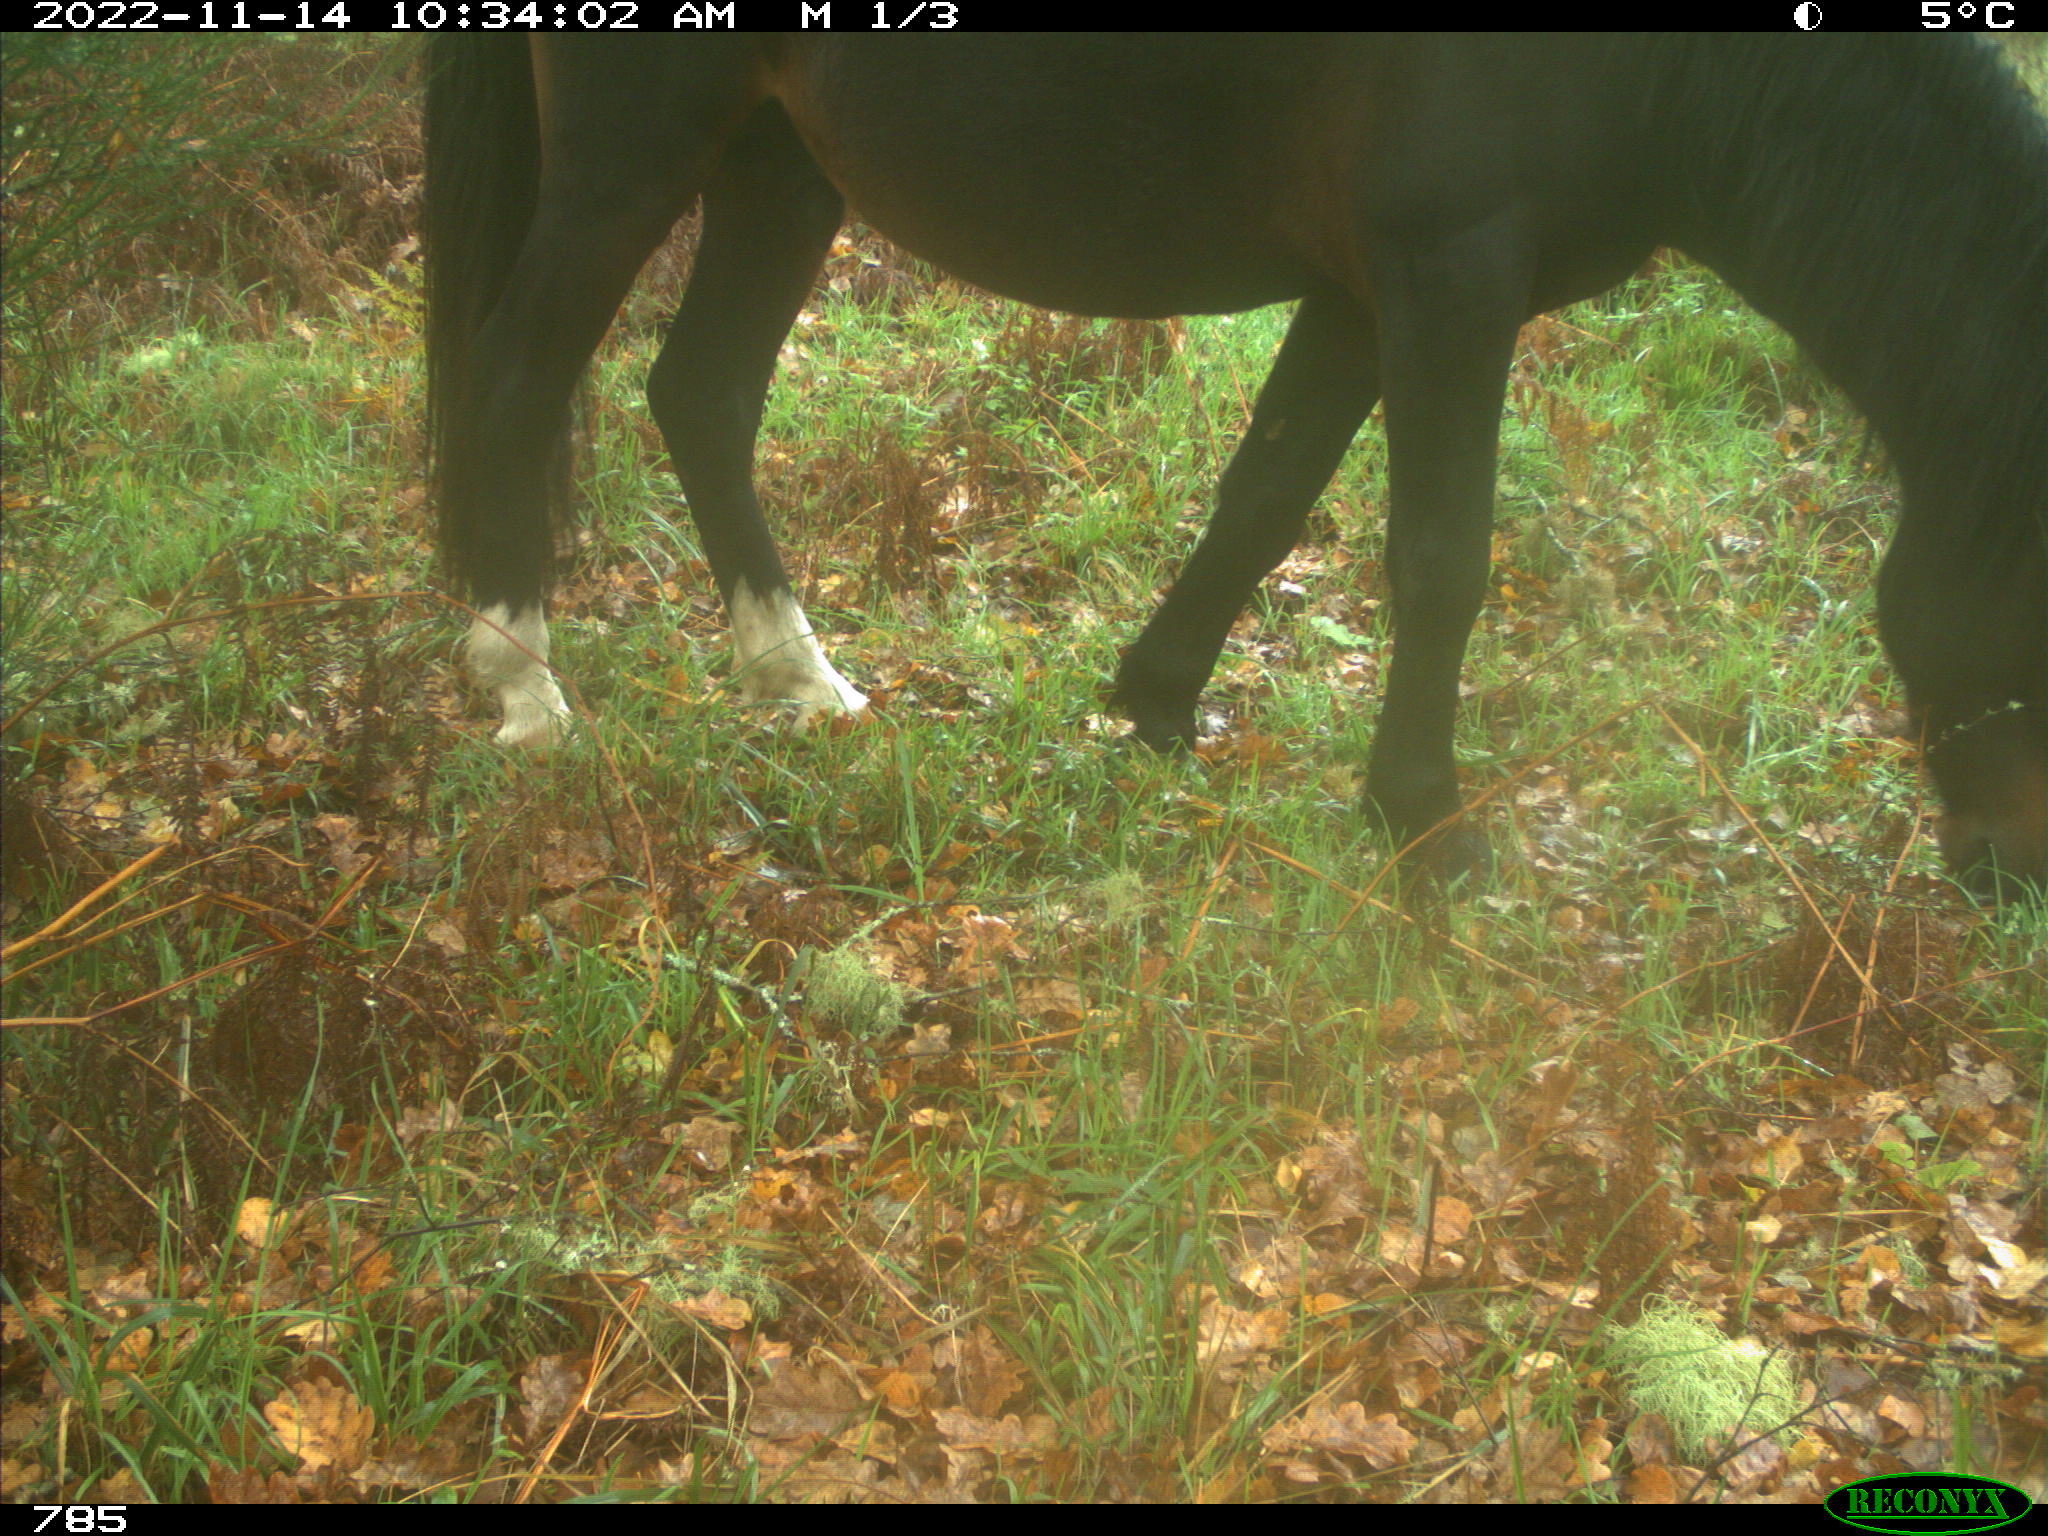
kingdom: Animalia
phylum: Chordata
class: Mammalia
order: Perissodactyla
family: Equidae
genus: Equus
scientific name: Equus caballus
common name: Horse
